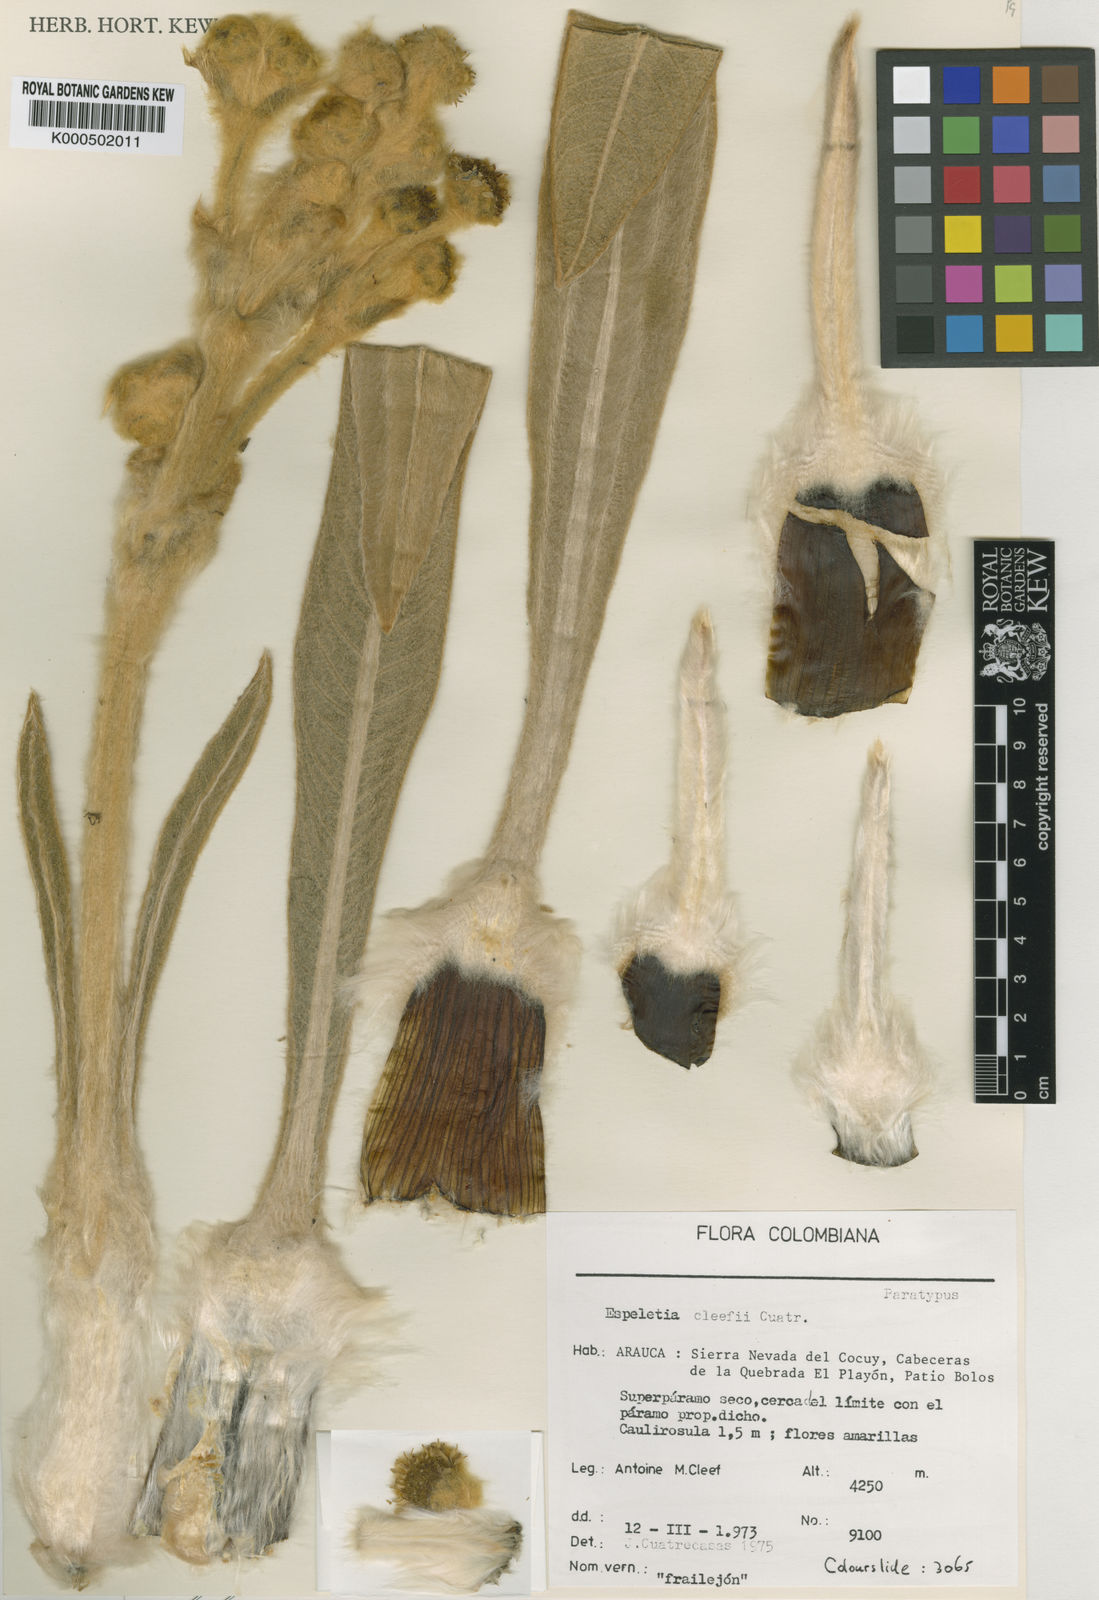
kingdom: Plantae
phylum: Tracheophyta
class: Magnoliopsida
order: Asterales
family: Asteraceae
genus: Espeletia
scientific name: Espeletia cleefii
